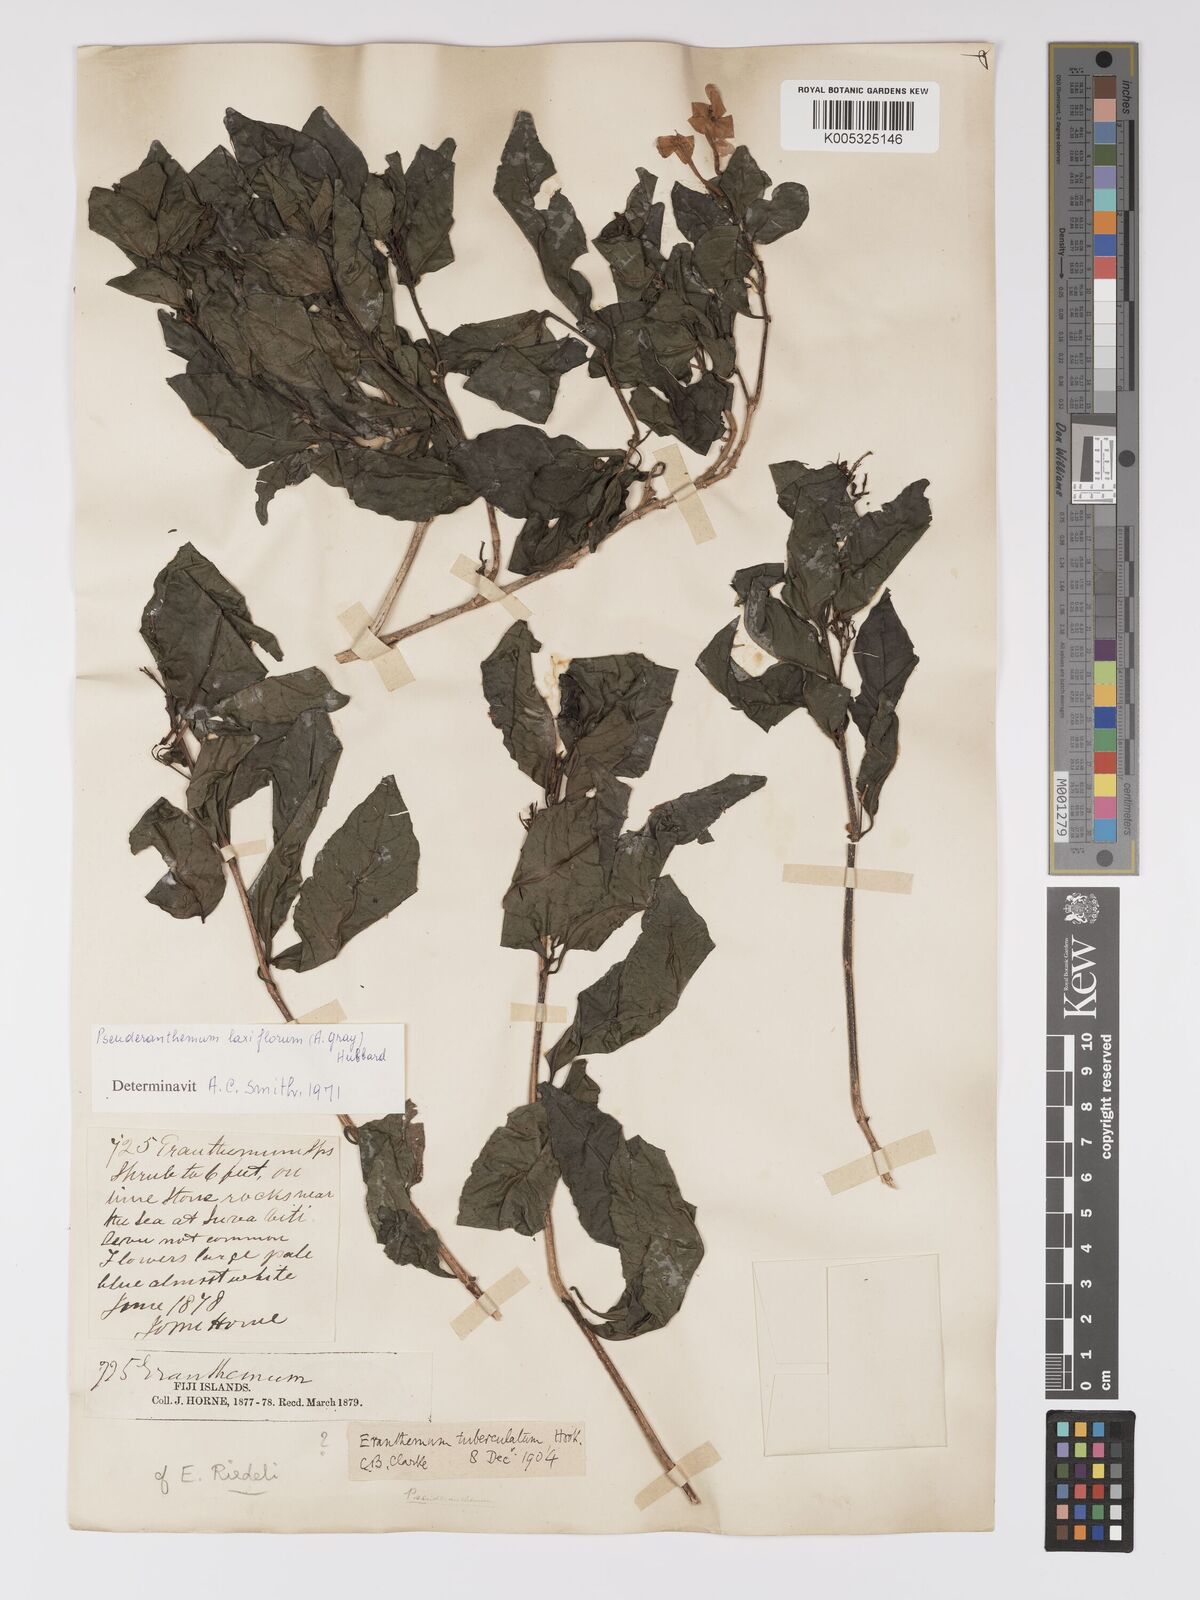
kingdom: Plantae
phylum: Tracheophyta
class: Magnoliopsida
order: Lamiales
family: Acanthaceae
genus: Pseuderanthemum
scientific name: Pseuderanthemum laxiflorum
